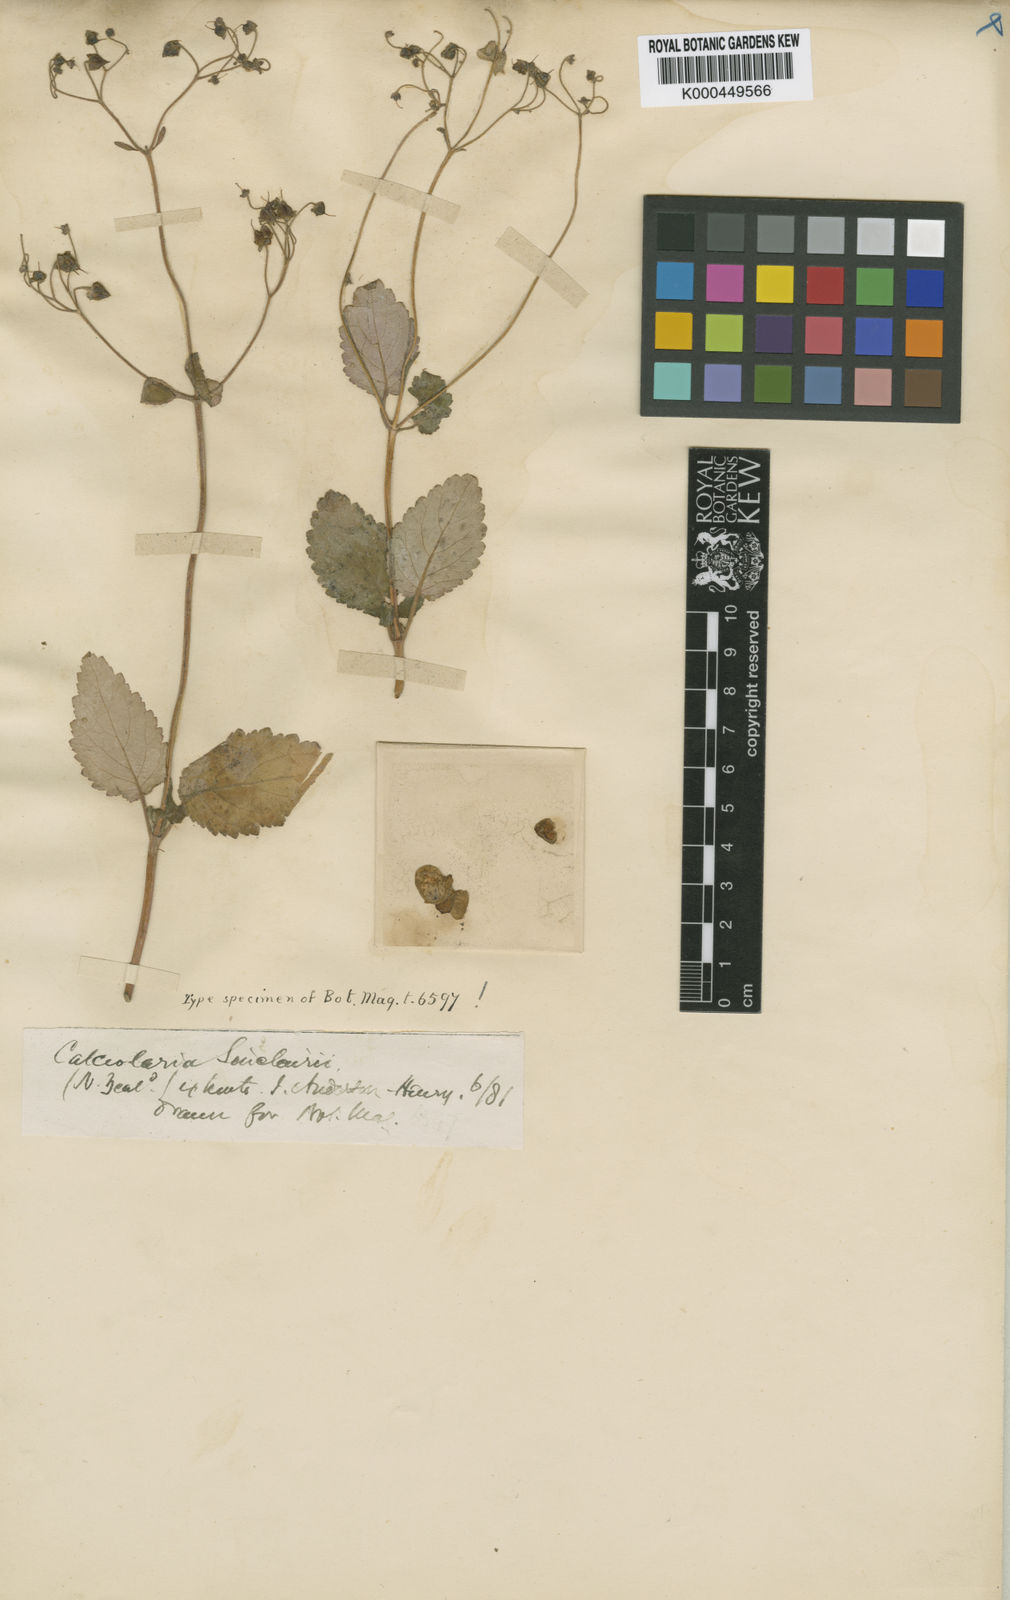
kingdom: Plantae
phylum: Tracheophyta
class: Magnoliopsida
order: Lamiales
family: Calceolariaceae
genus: Jovellana
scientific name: Jovellana sinclairii
